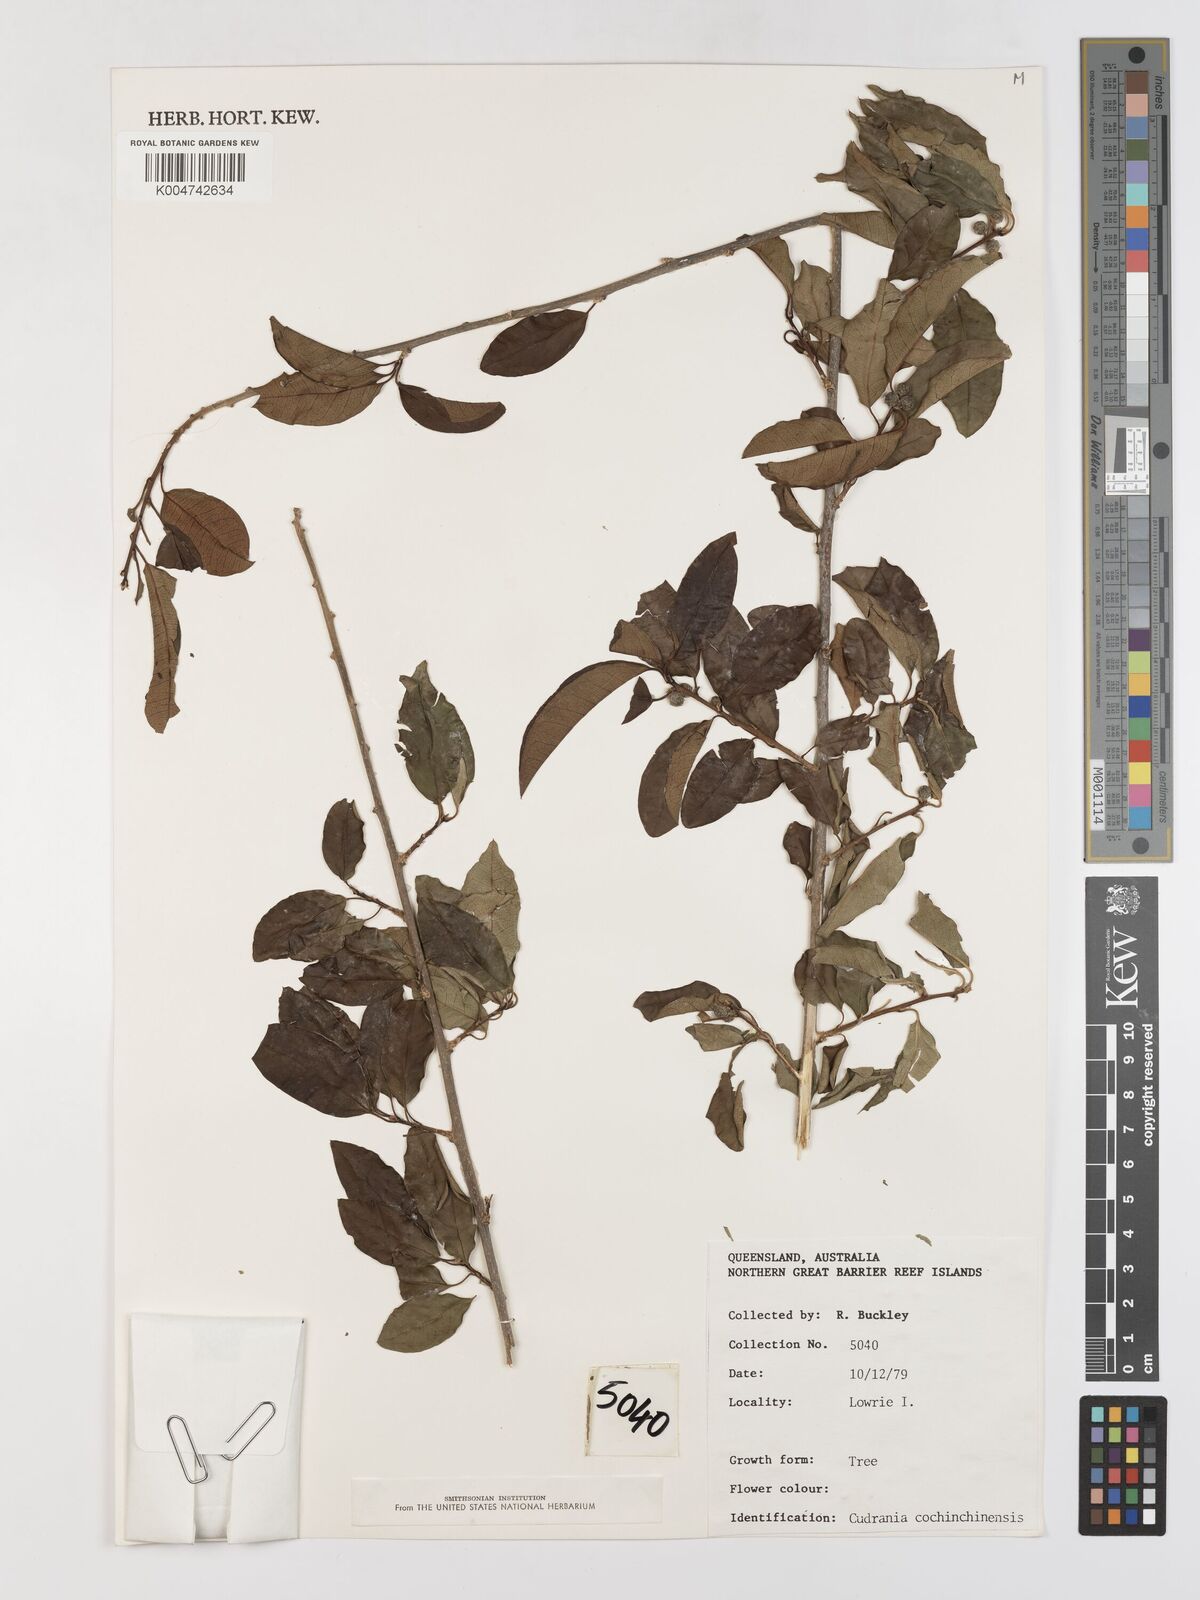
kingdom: Plantae
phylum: Tracheophyta
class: Magnoliopsida
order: Rosales
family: Moraceae
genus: Maclura
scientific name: Maclura cochinchinensis
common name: Cockspurthorn
